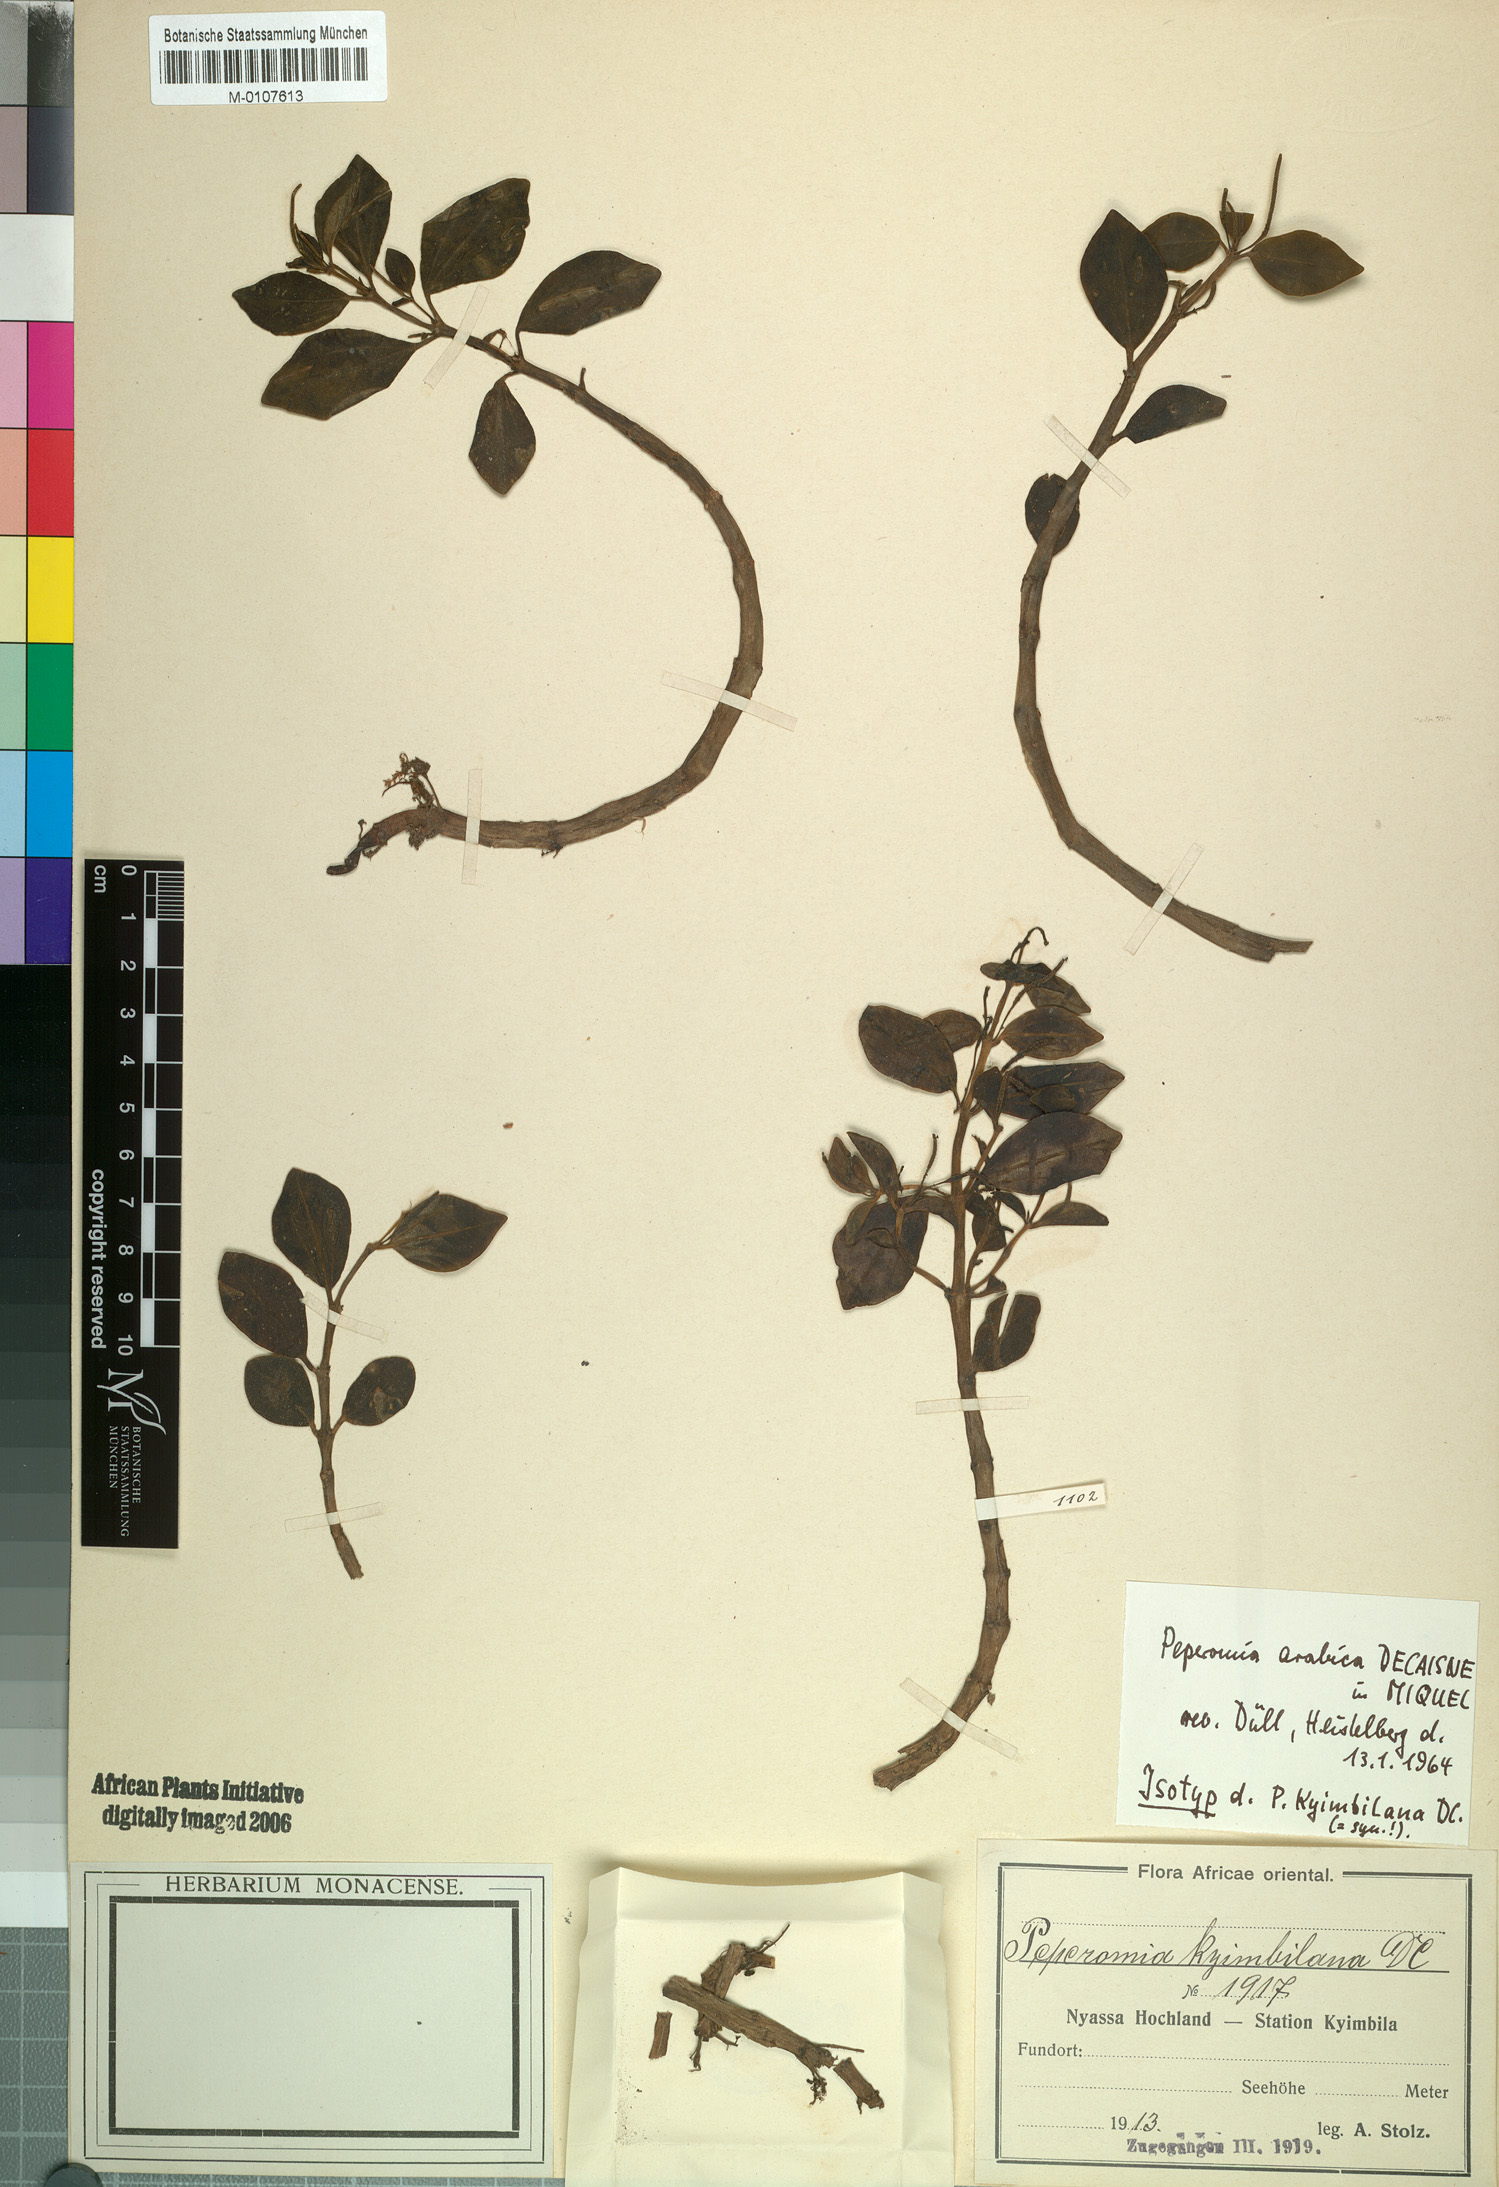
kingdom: Plantae
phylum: Tracheophyta
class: Magnoliopsida
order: Piperales
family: Piperaceae
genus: Peperomia
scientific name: Peperomia leptostachya
